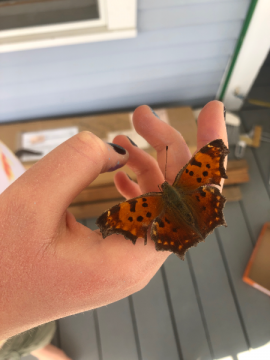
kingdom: Animalia
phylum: Arthropoda
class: Insecta
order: Lepidoptera
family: Nymphalidae
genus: Polygonia
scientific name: Polygonia comma
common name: Eastern Comma
